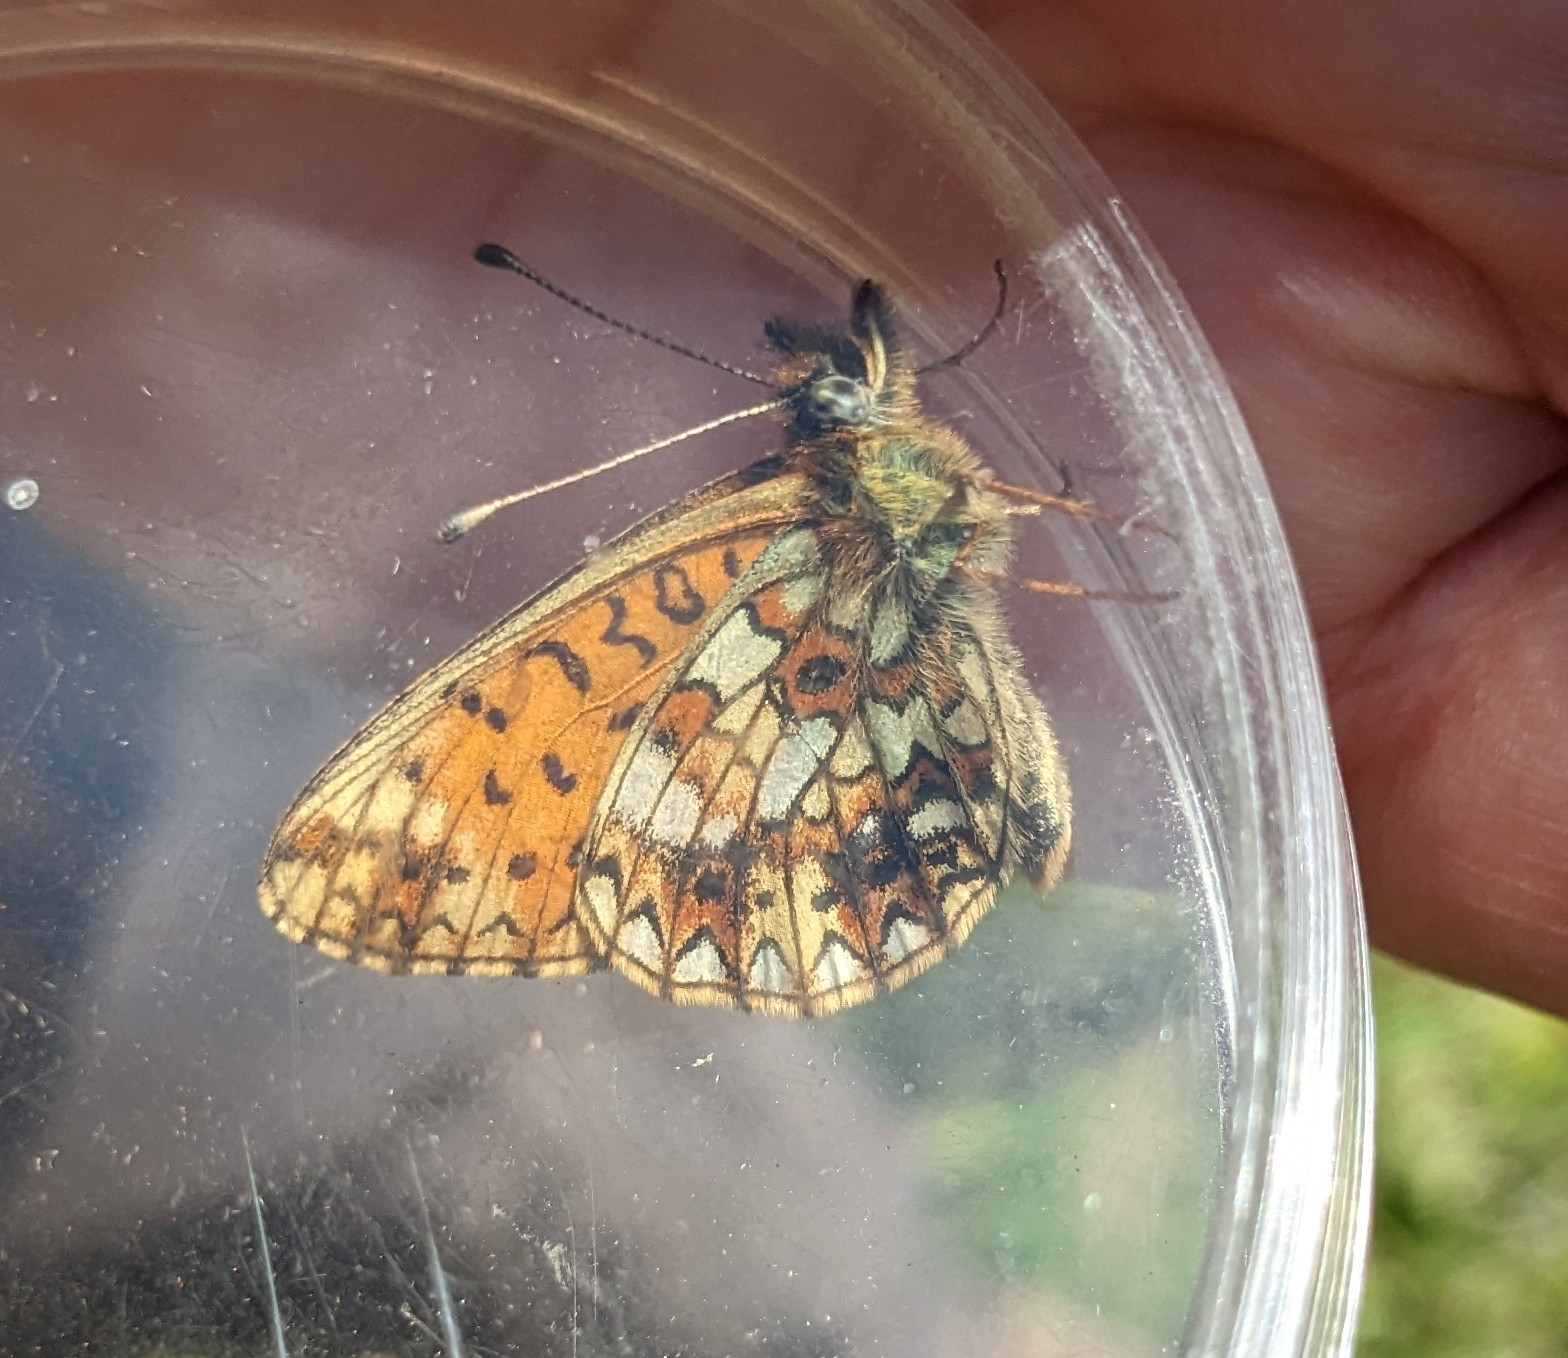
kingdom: Animalia
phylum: Arthropoda
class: Insecta
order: Lepidoptera
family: Nymphalidae
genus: Boloria
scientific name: Boloria selene
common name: Brunlig perlemorsommerfugl
